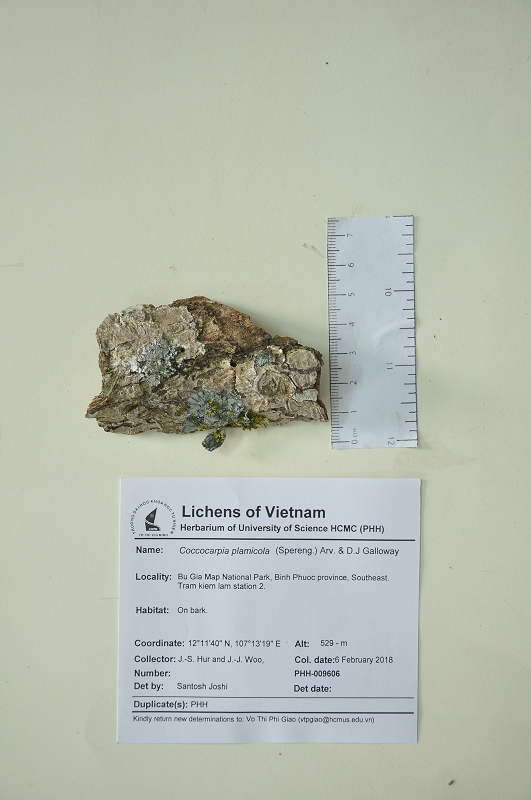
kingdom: Fungi
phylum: Ascomycota
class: Lecanoromycetes
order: Peltigerales
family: Coccocarpiaceae
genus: Coccocarpia
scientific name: Coccocarpia palmicola
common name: Salted shell lichen
